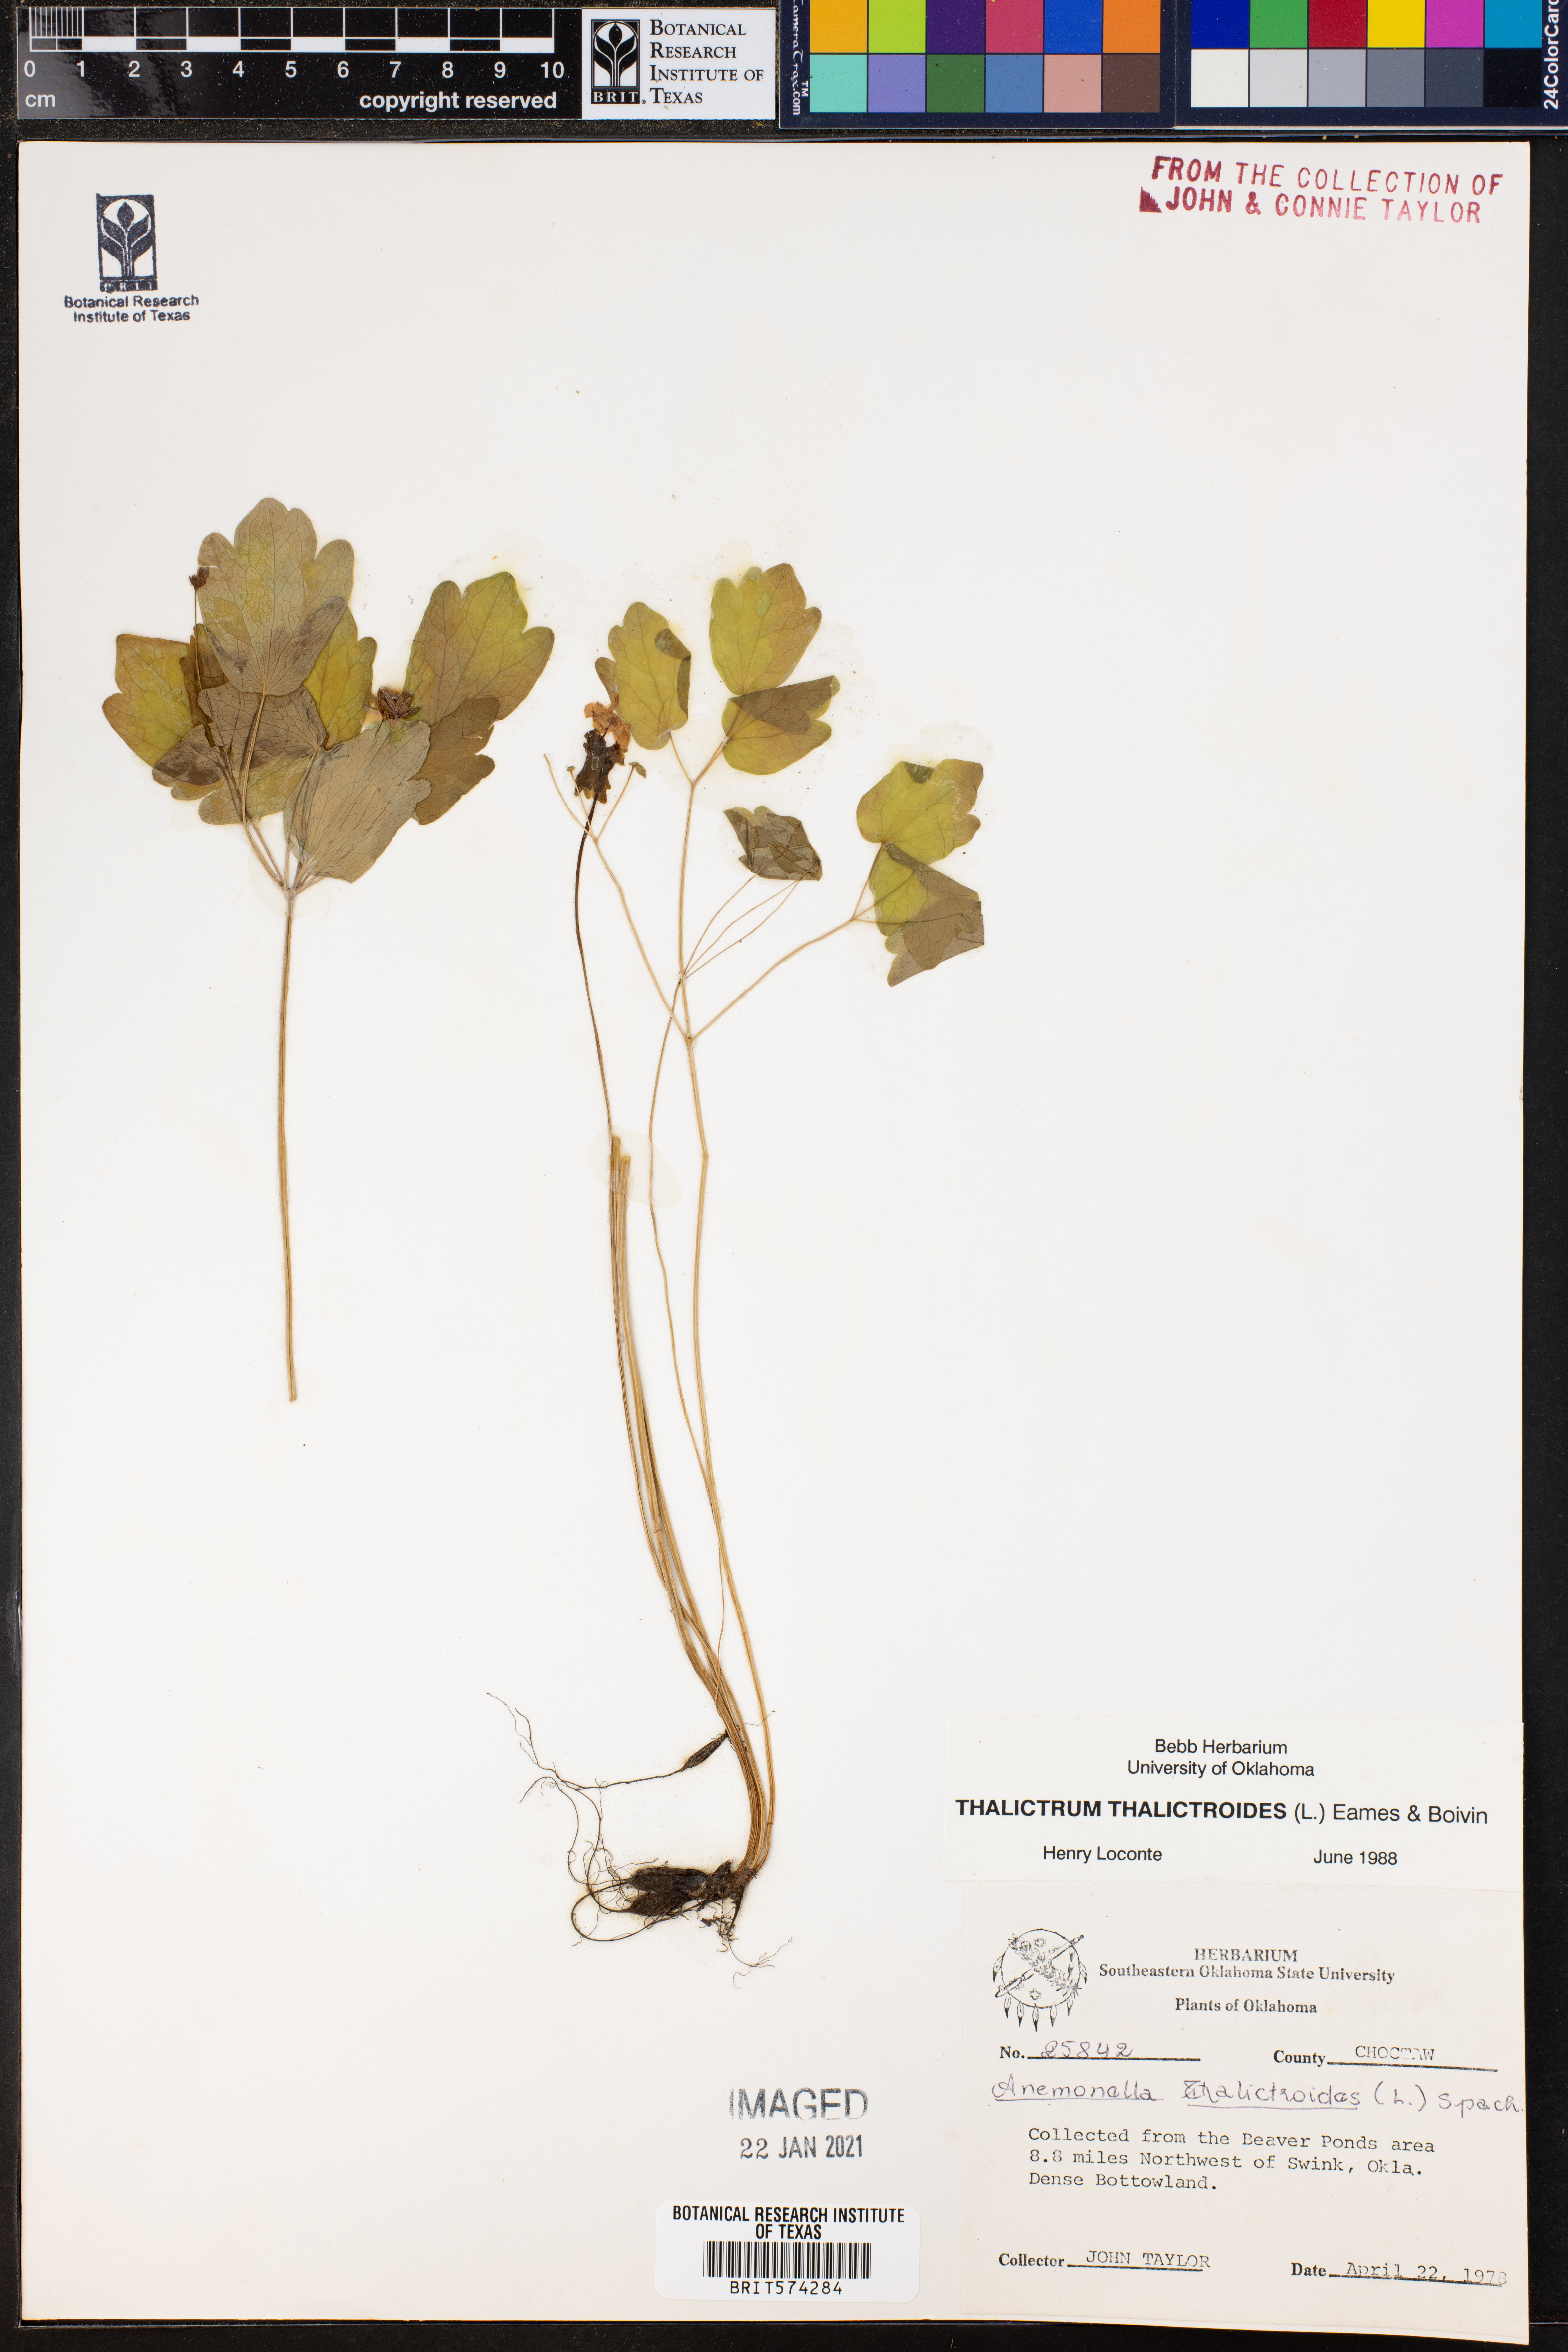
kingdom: Plantae
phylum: Tracheophyta
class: Magnoliopsida
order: Ranunculales
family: Ranunculaceae
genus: Thalictrum
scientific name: Thalictrum thalictroides
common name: Rue-anemone
